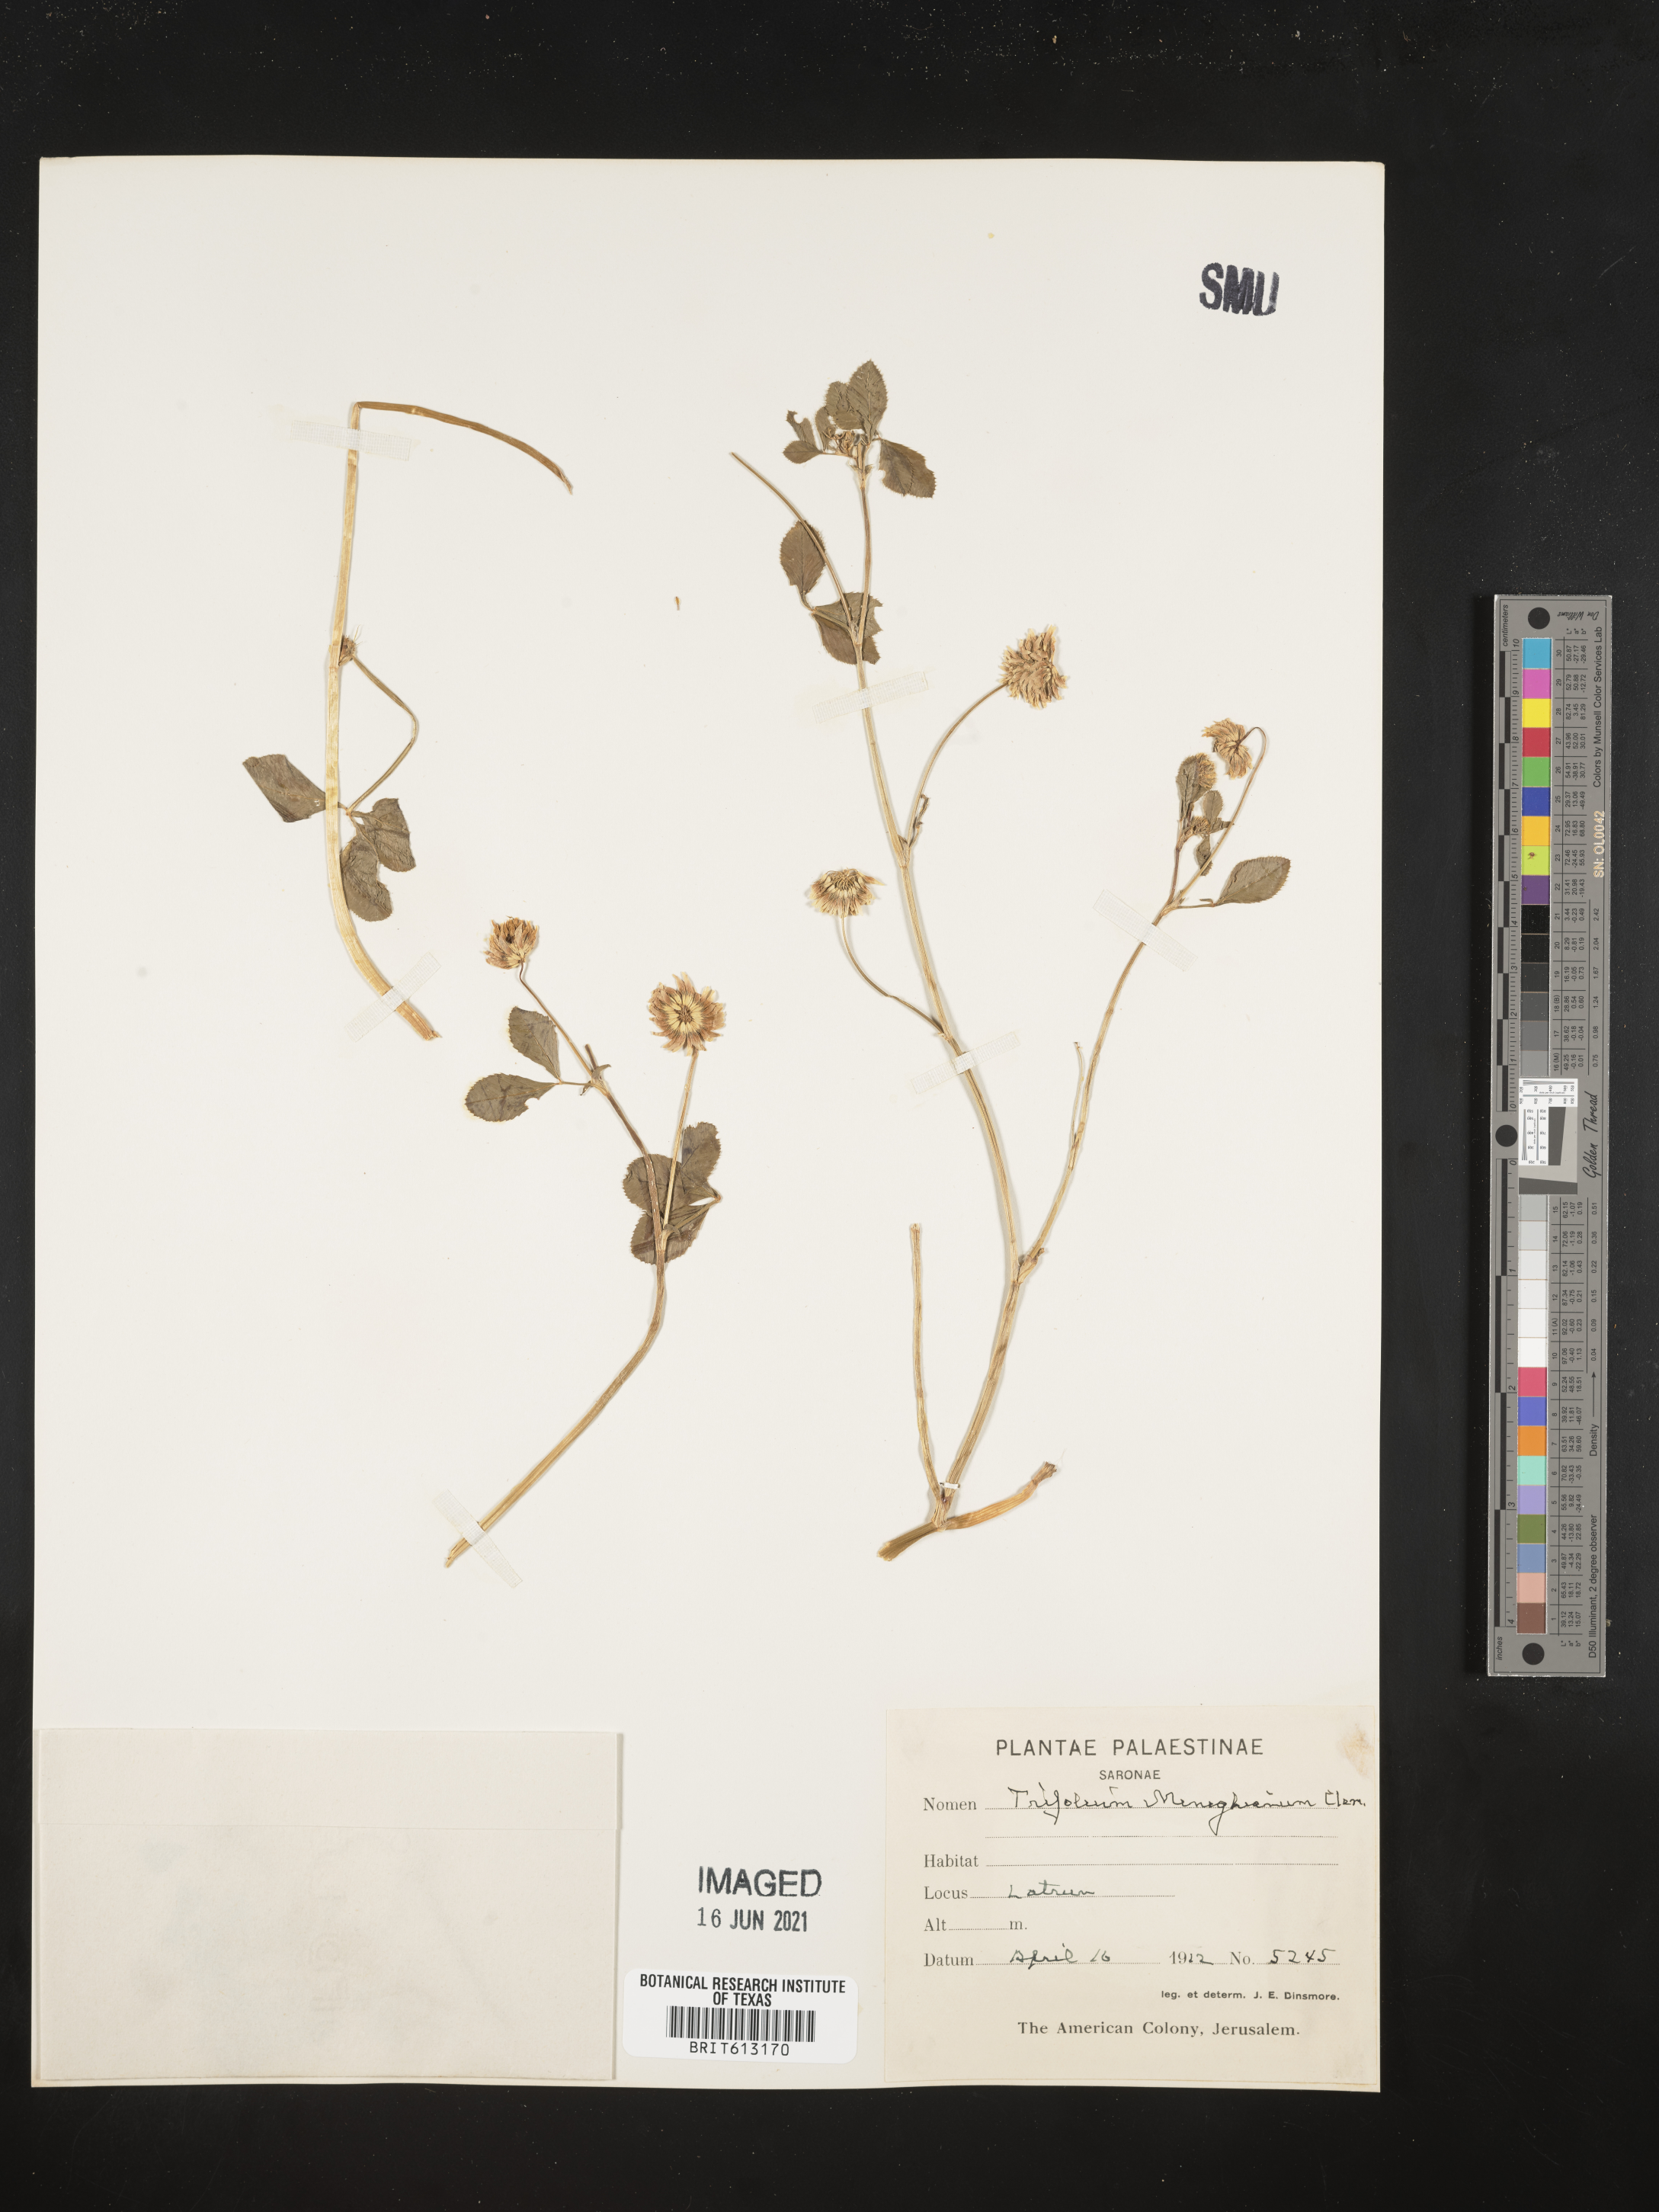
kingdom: Plantae
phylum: Tracheophyta
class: Magnoliopsida
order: Fabales
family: Fabaceae
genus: Trifolium
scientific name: Trifolium polystachyum
